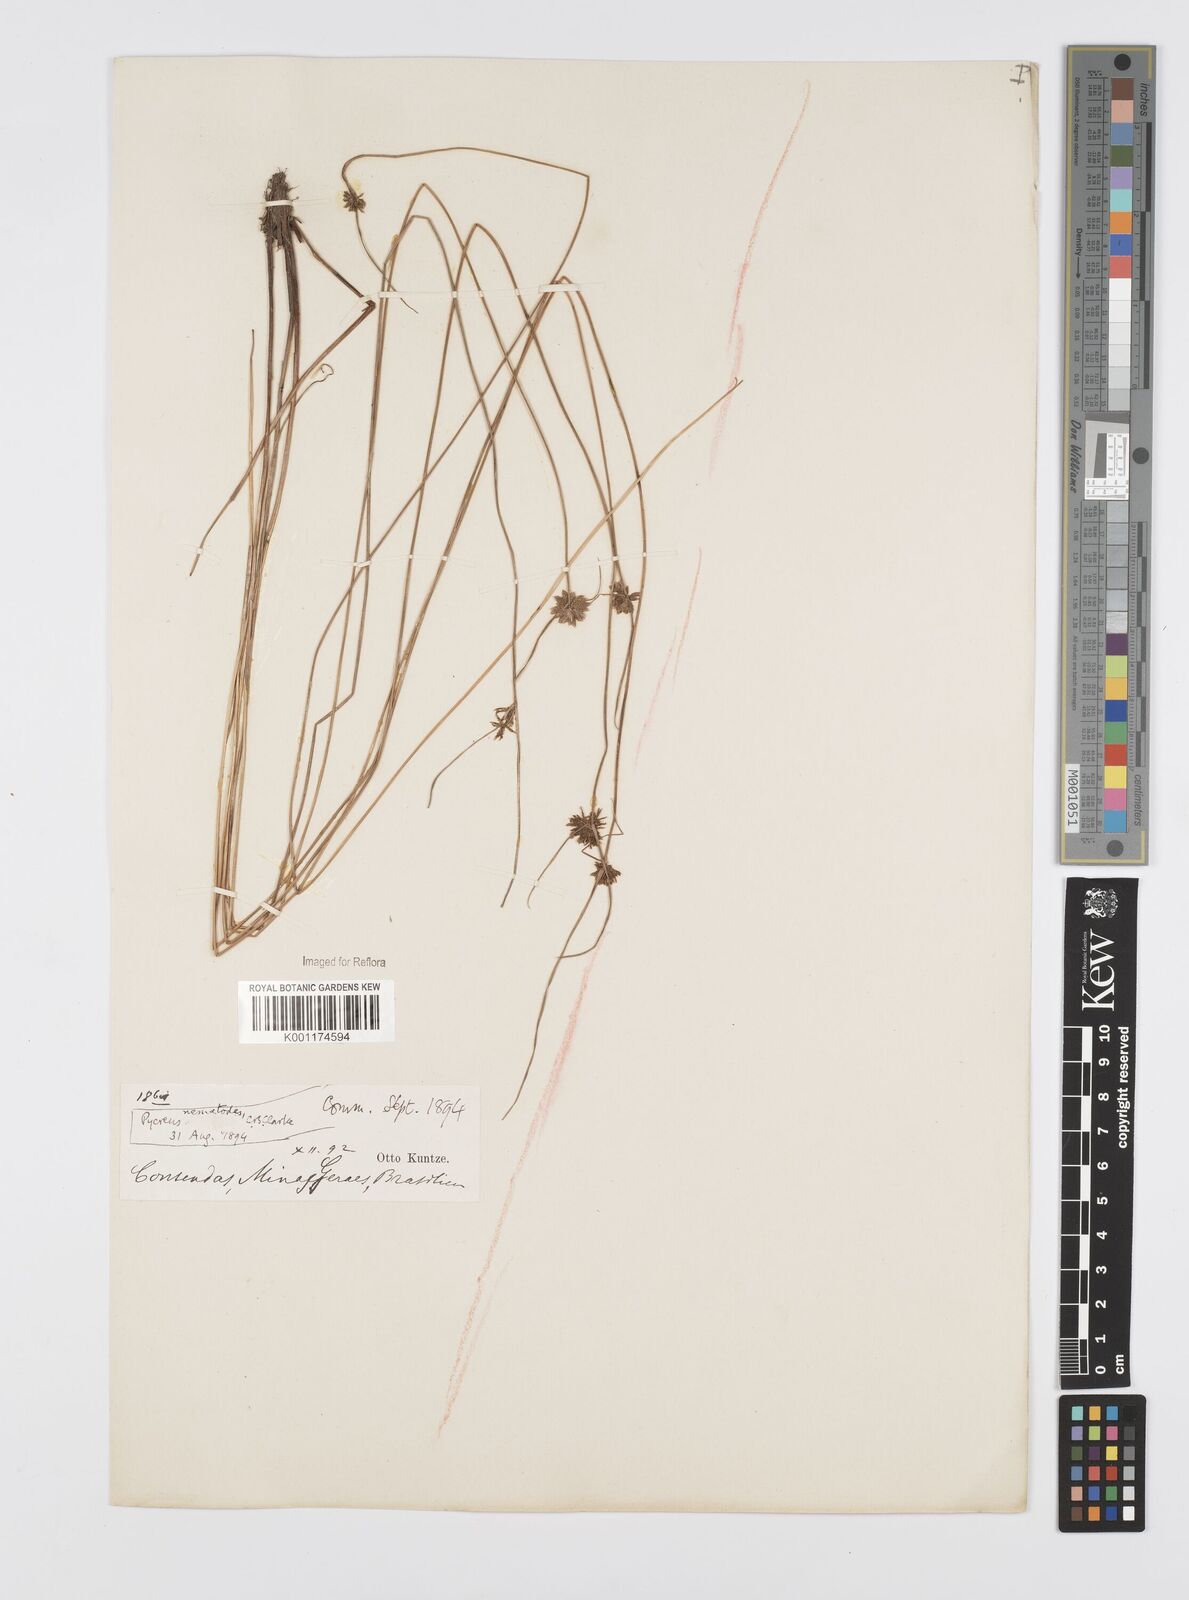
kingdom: Plantae
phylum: Tracheophyta
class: Liliopsida
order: Poales
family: Cyperaceae
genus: Cyperus
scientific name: Cyperus megapotamicus
